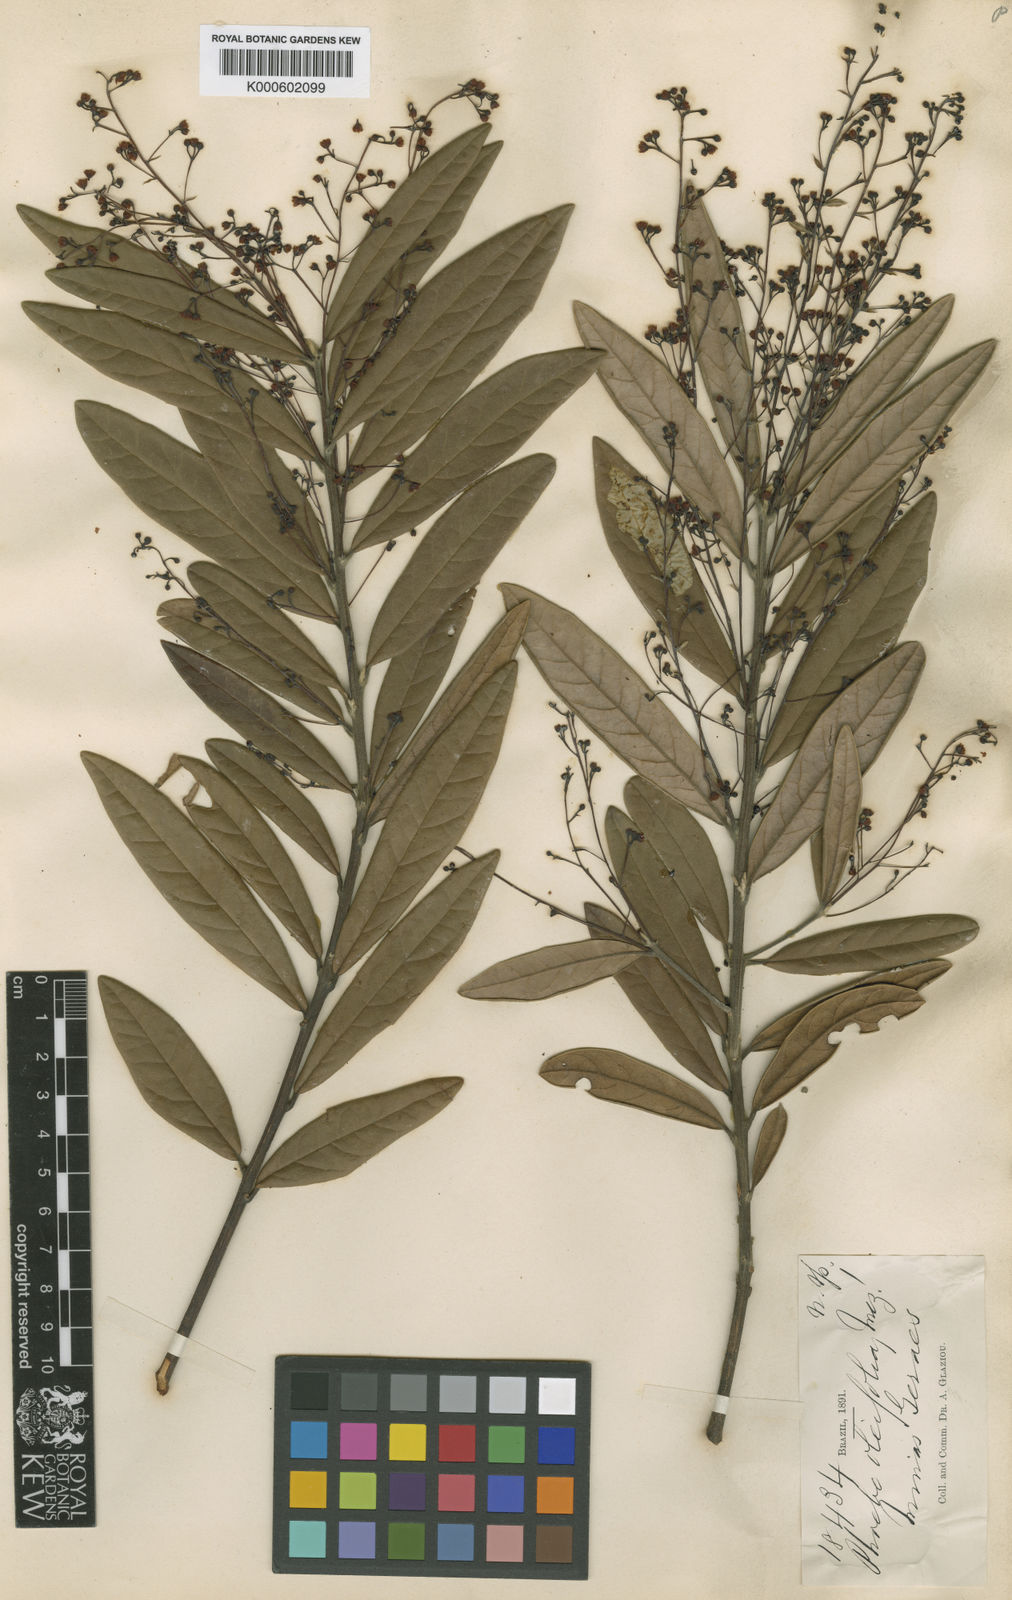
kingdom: Plantae
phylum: Tracheophyta
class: Magnoliopsida
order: Laurales
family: Lauraceae
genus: Aiouea
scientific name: Aiouea erythropus
